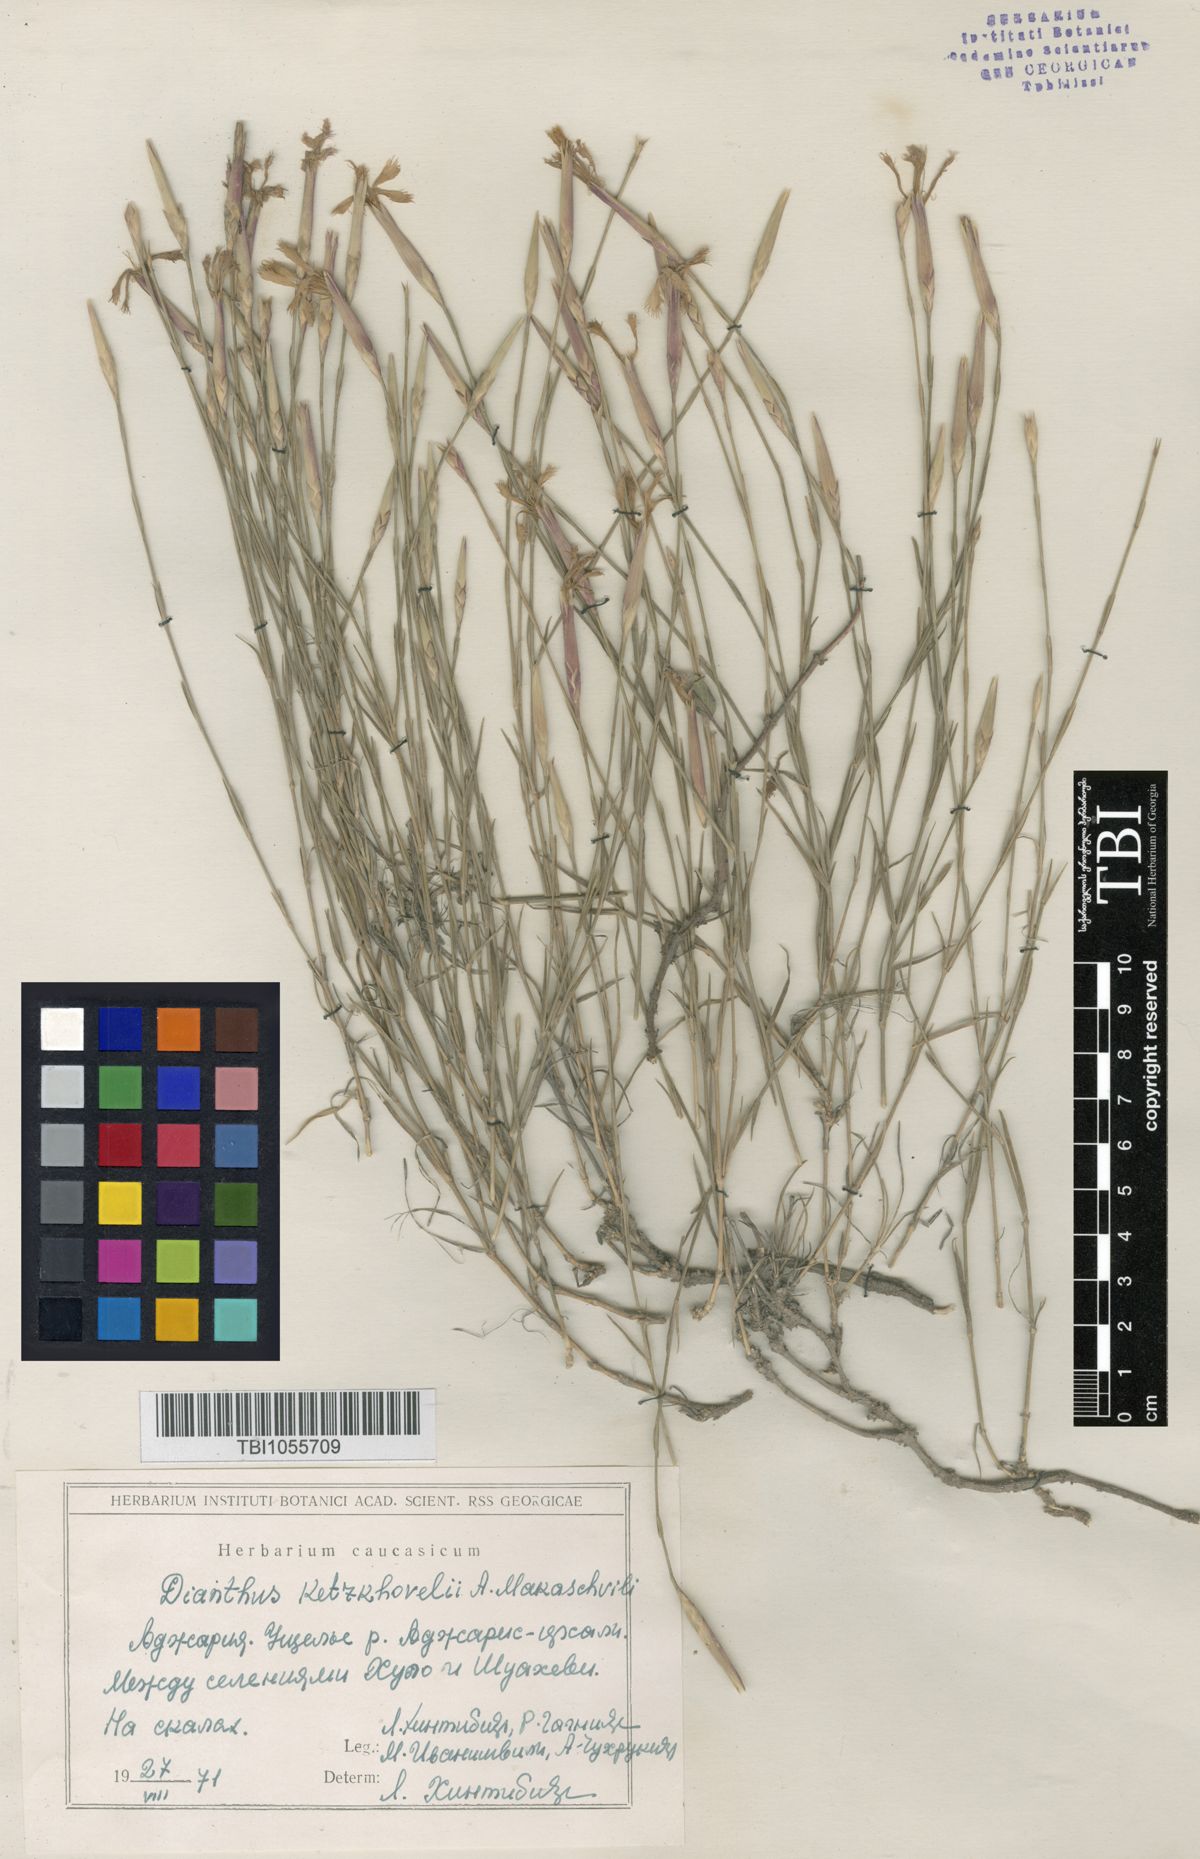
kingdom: Plantae
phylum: Tracheophyta
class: Magnoliopsida
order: Caryophyllales
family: Caryophyllaceae
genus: Dianthus
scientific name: Dianthus orientalis
